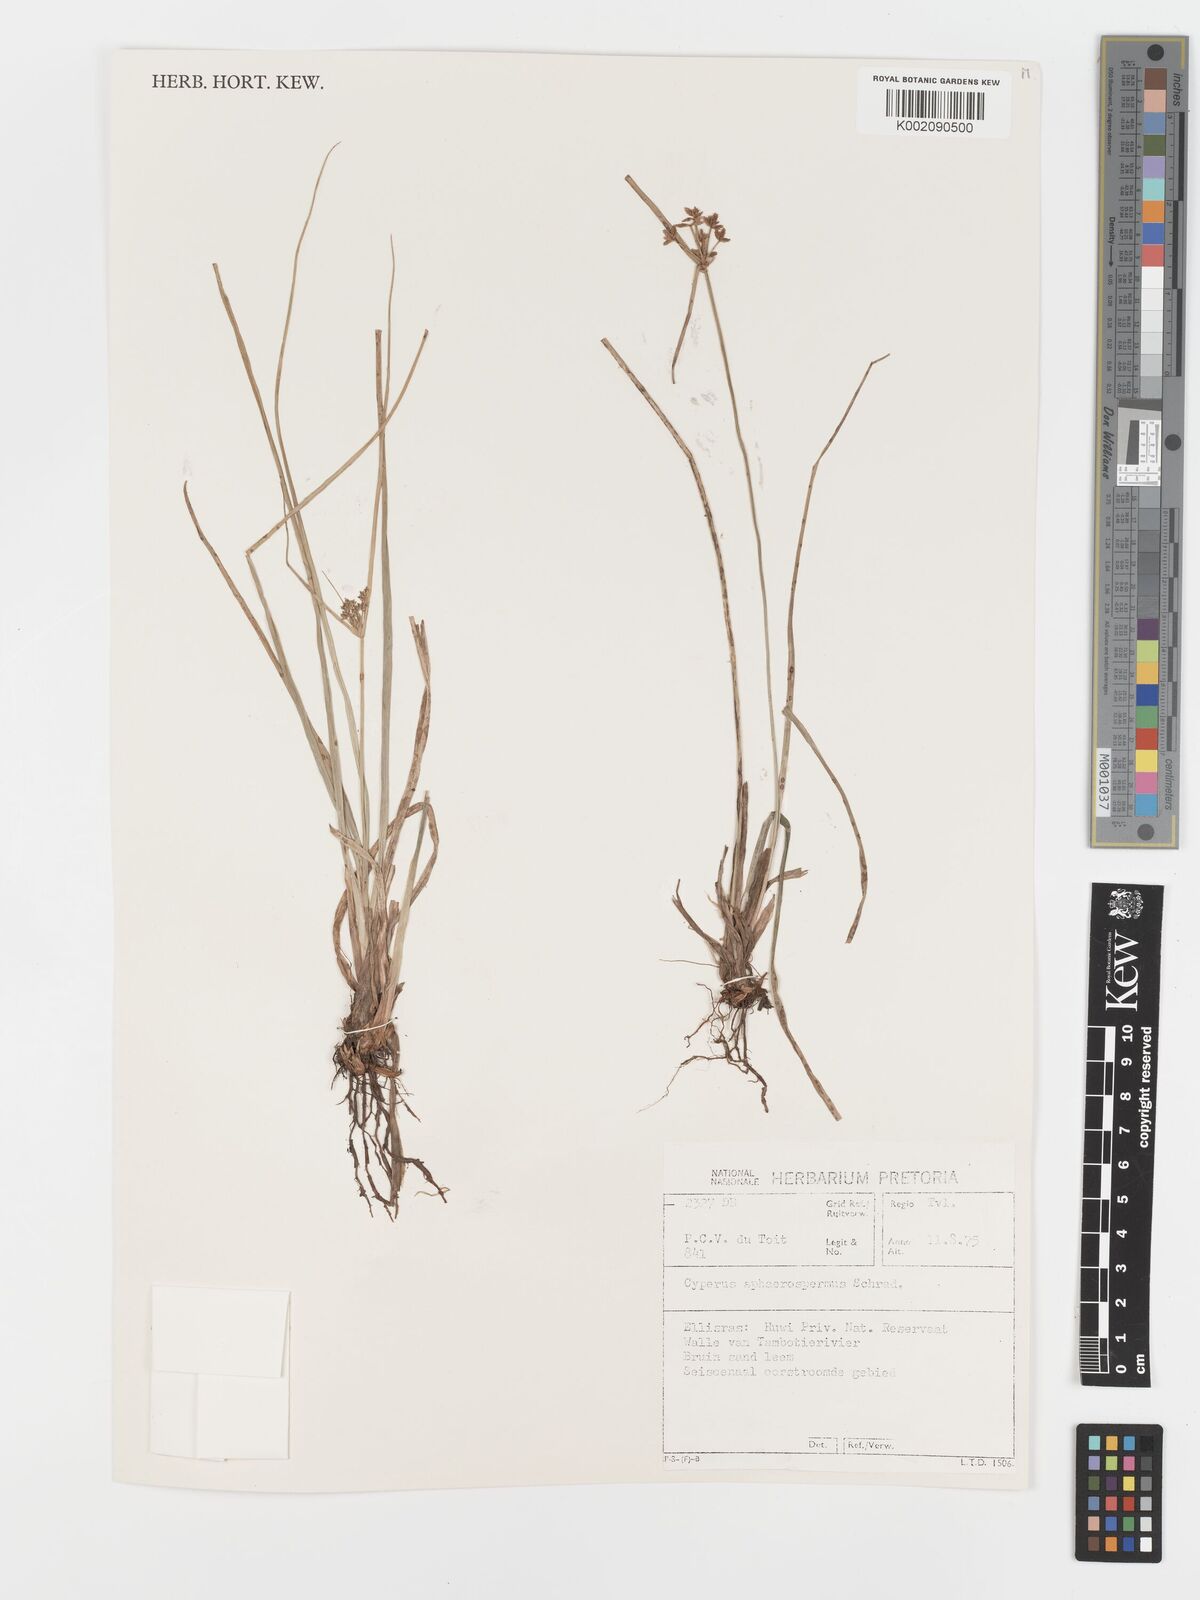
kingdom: Plantae
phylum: Tracheophyta
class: Liliopsida
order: Poales
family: Cyperaceae
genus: Cyperus
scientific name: Cyperus sphaerospermus
